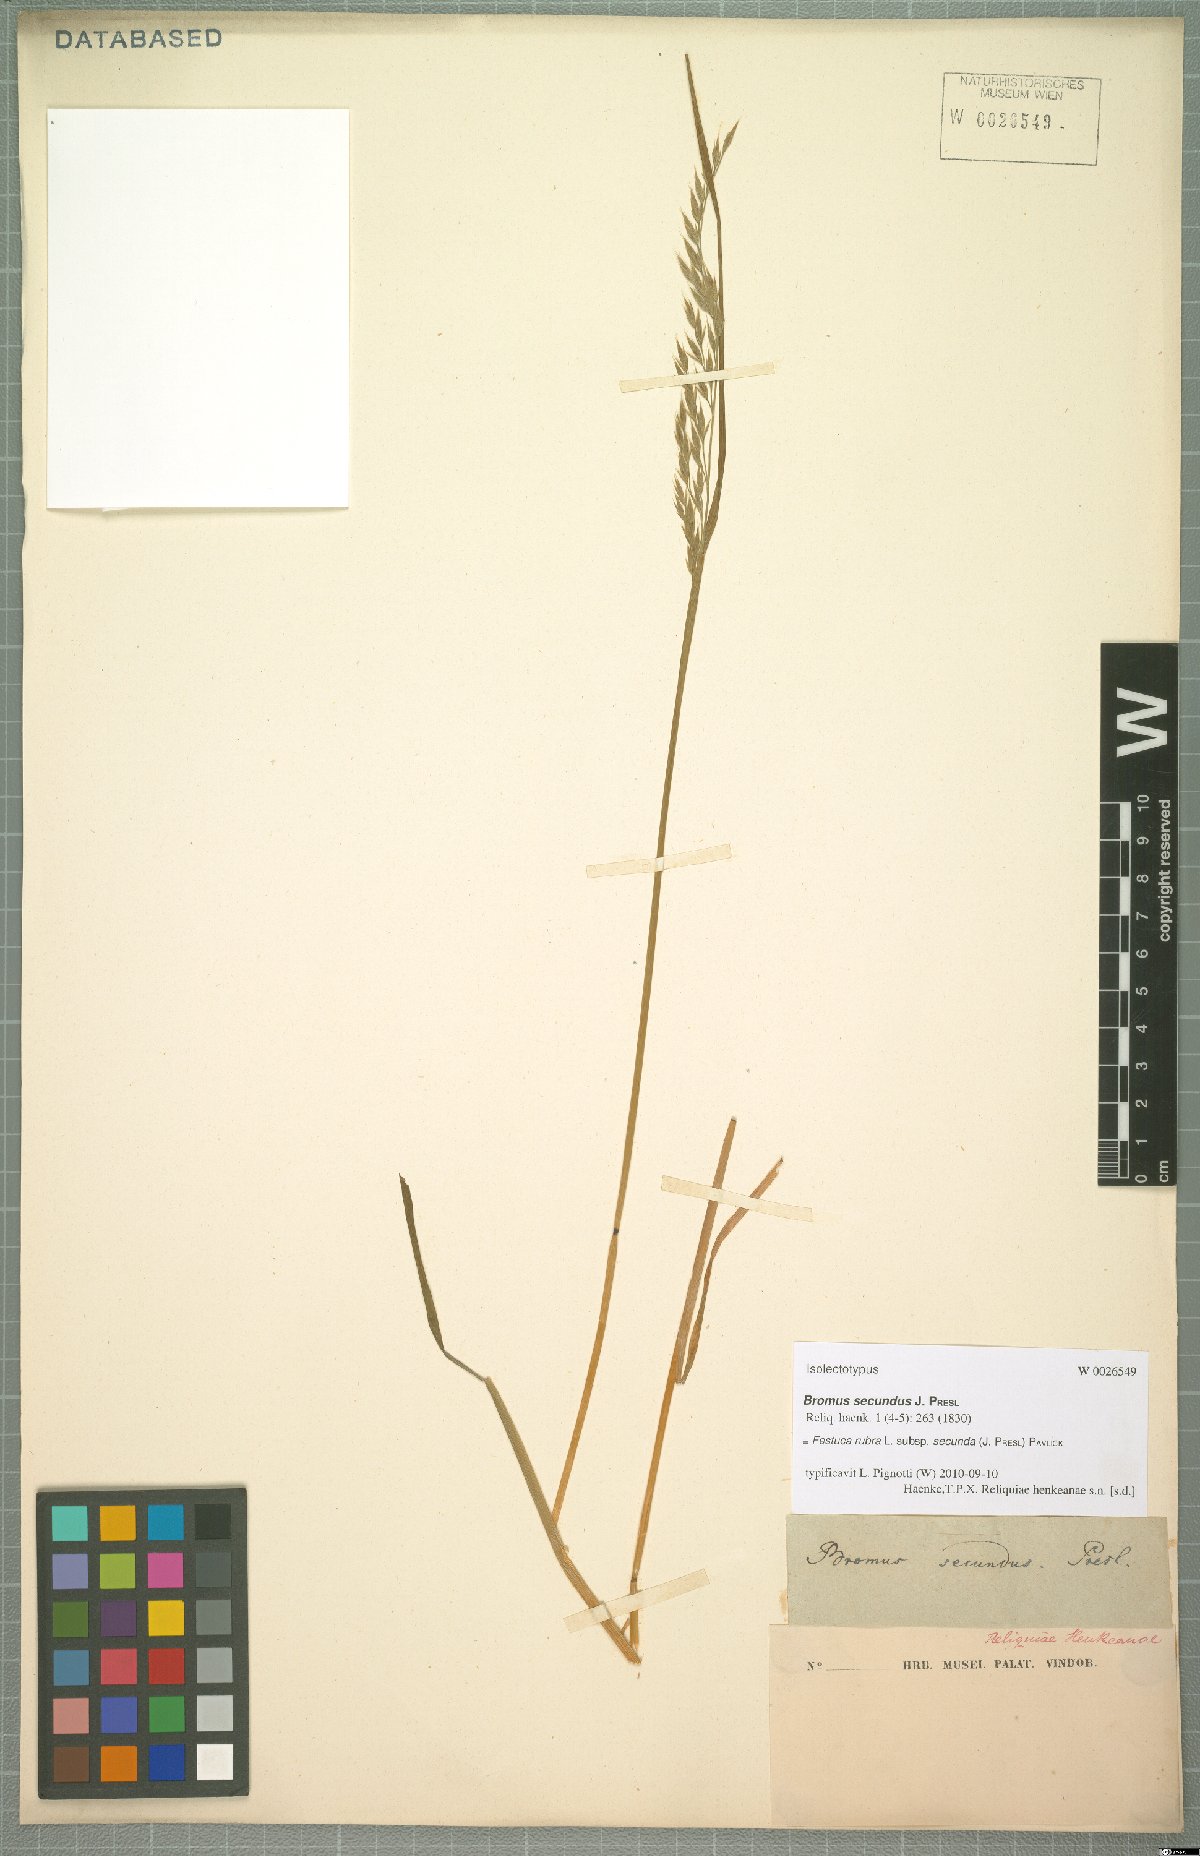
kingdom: Plantae
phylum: Tracheophyta
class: Liliopsida
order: Poales
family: Poaceae
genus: Festuca
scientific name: Festuca rubra
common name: Red fescue
